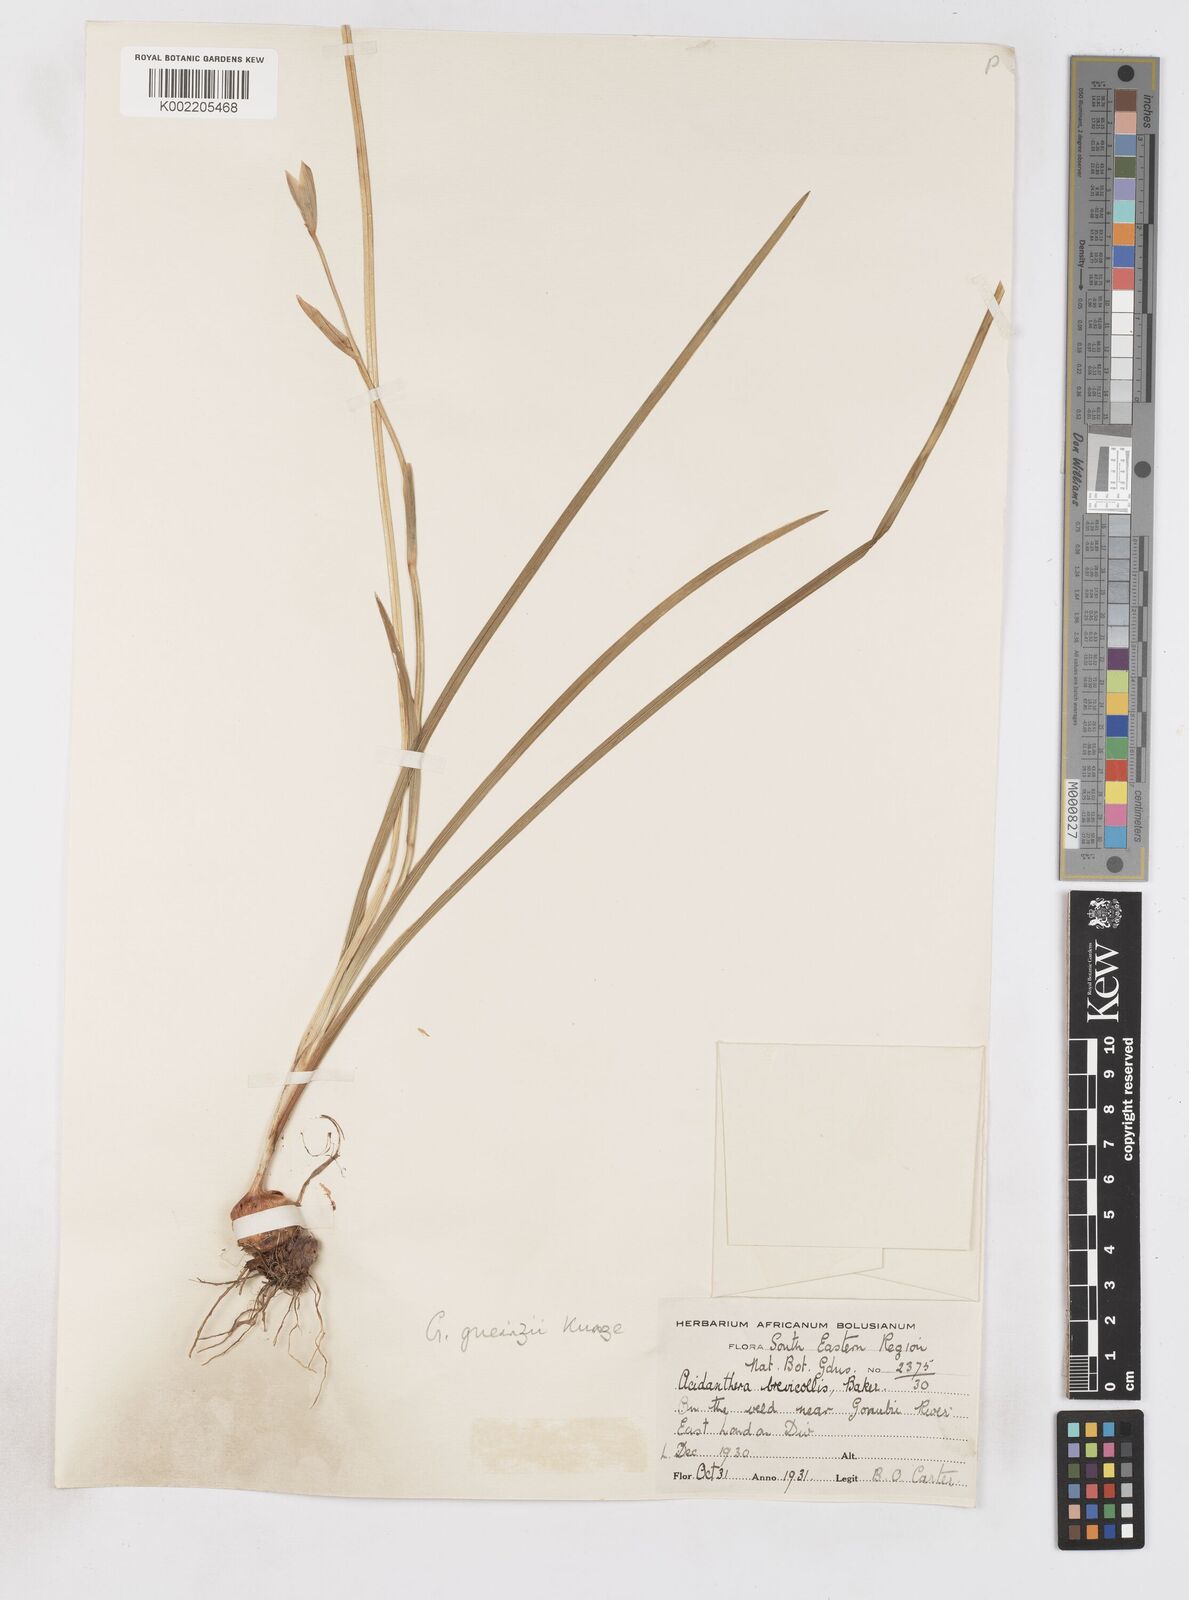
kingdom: Plantae
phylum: Tracheophyta
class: Liliopsida
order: Asparagales
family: Iridaceae
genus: Gladiolus
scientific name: Gladiolus gueinzii
